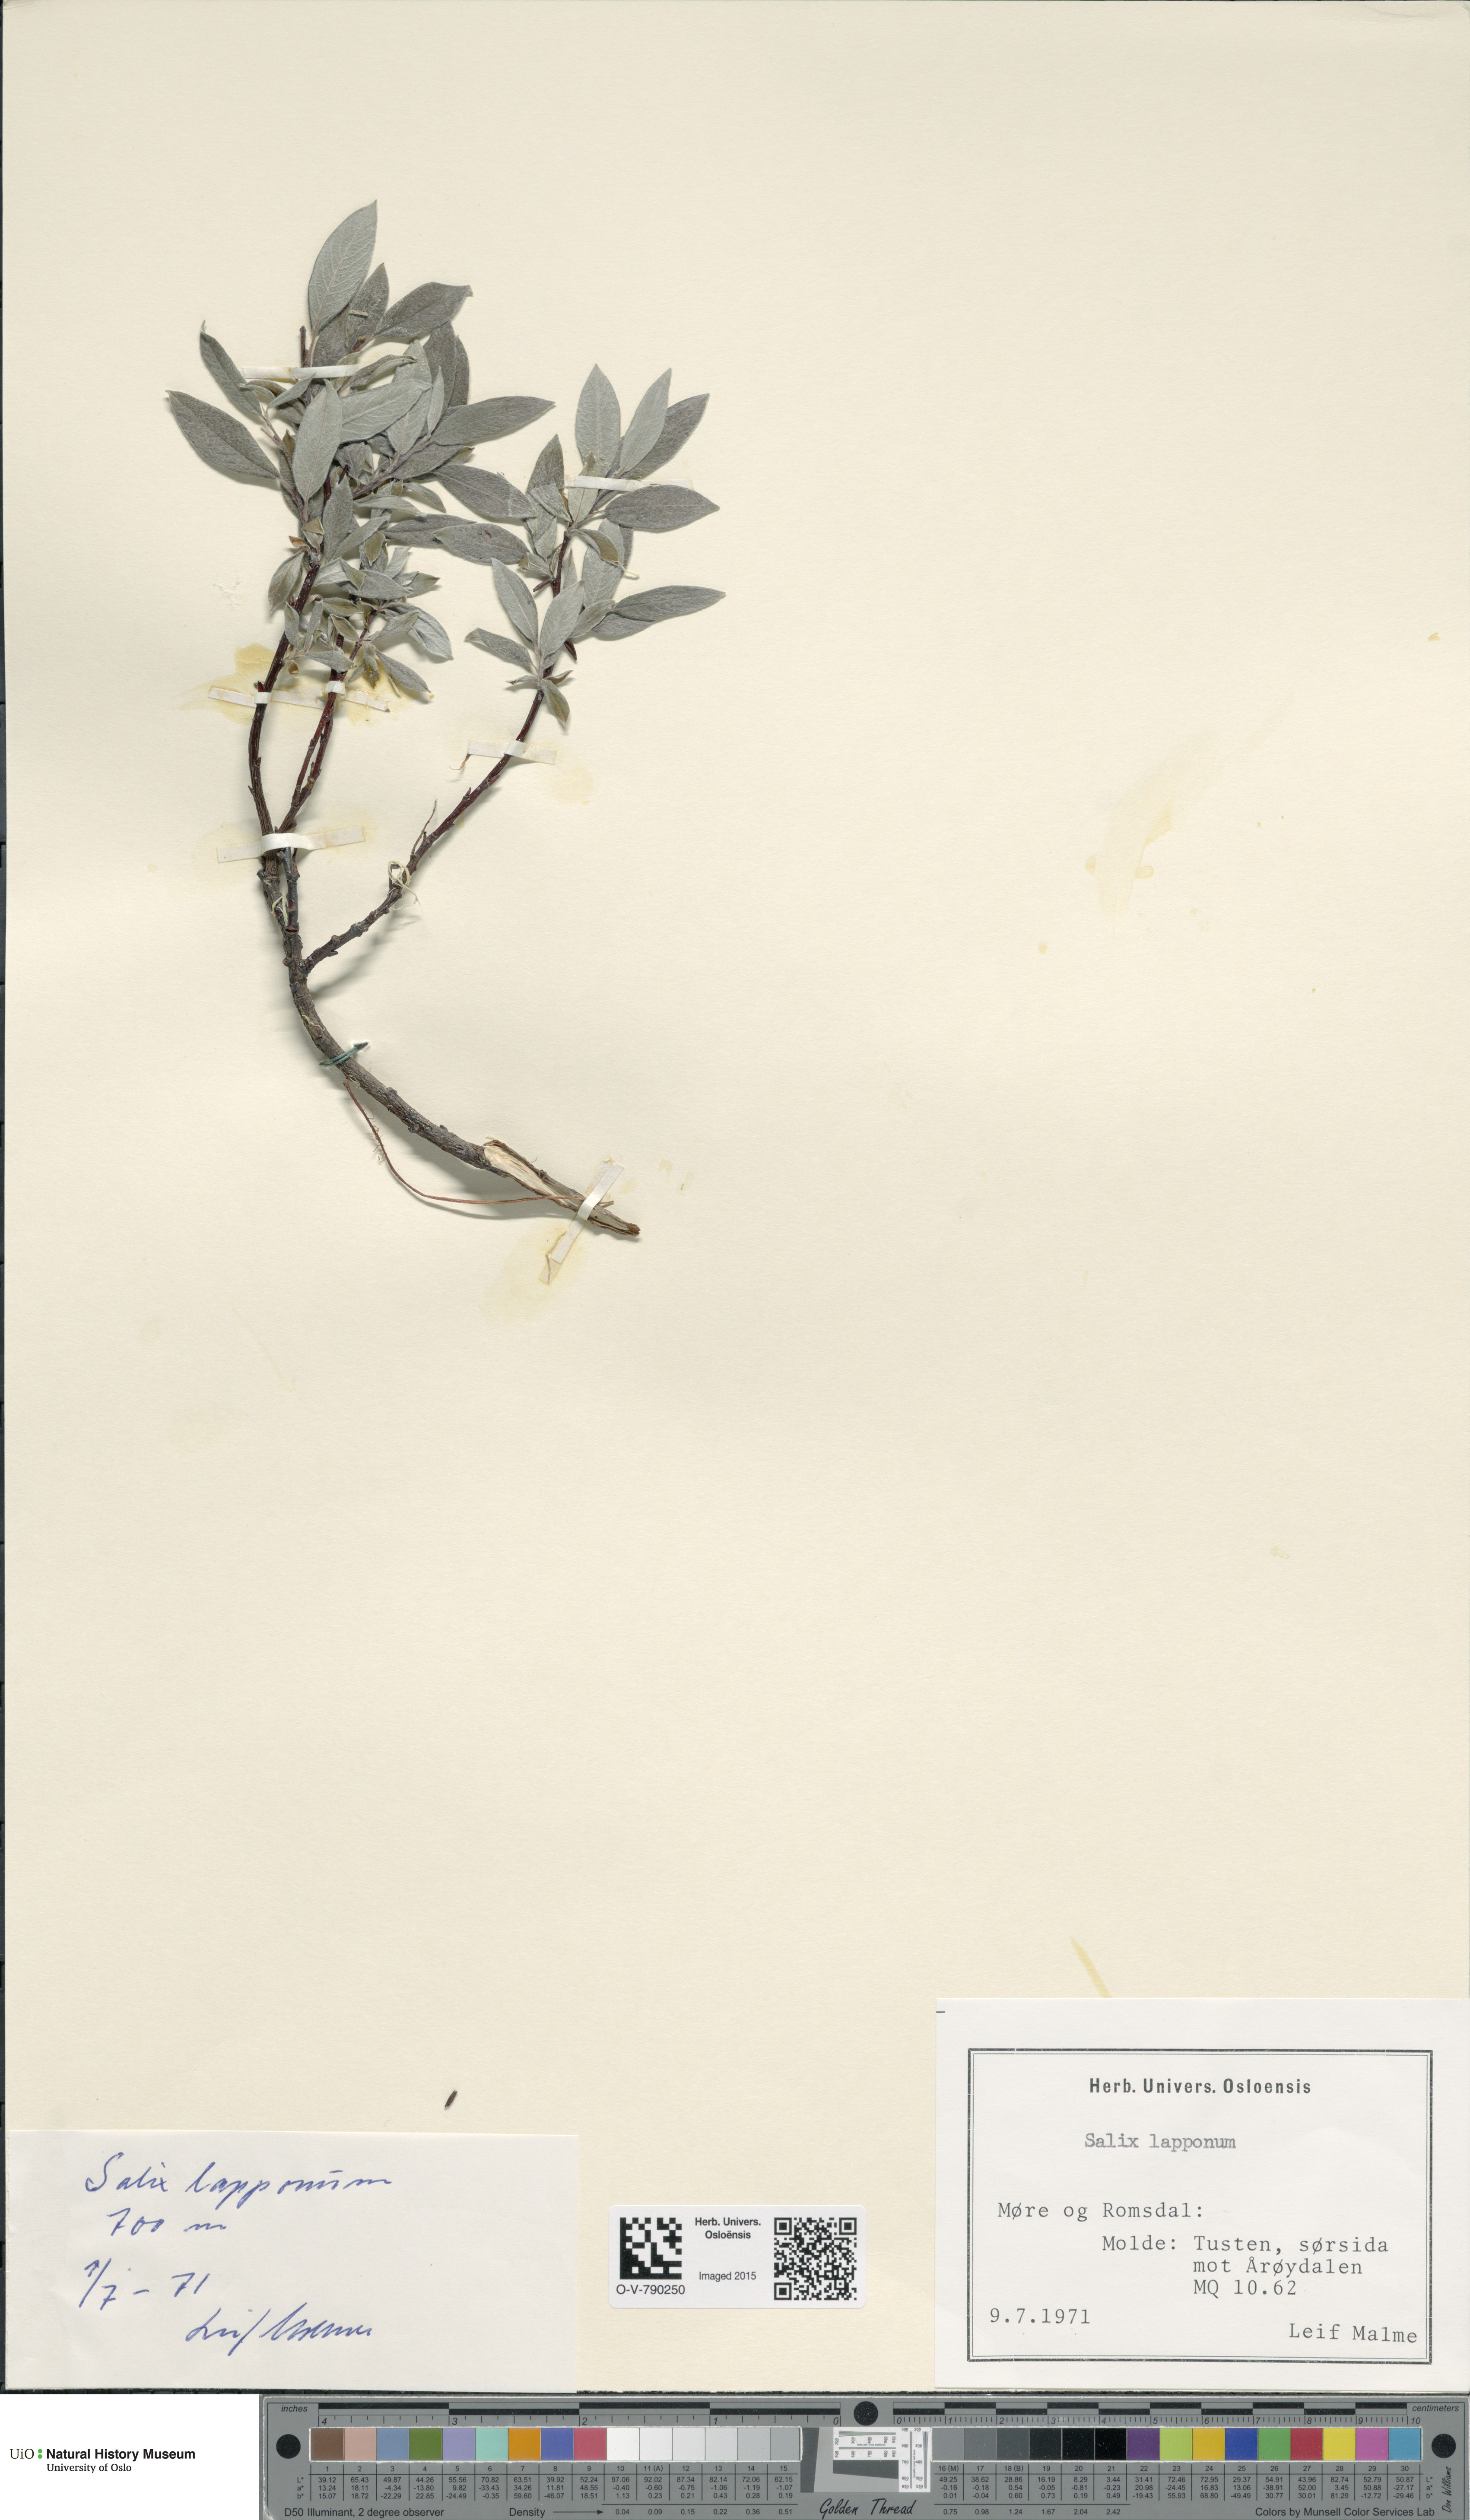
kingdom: Plantae
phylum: Tracheophyta
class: Magnoliopsida
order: Malpighiales
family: Salicaceae
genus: Salix
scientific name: Salix lapponum
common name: Downy willow
